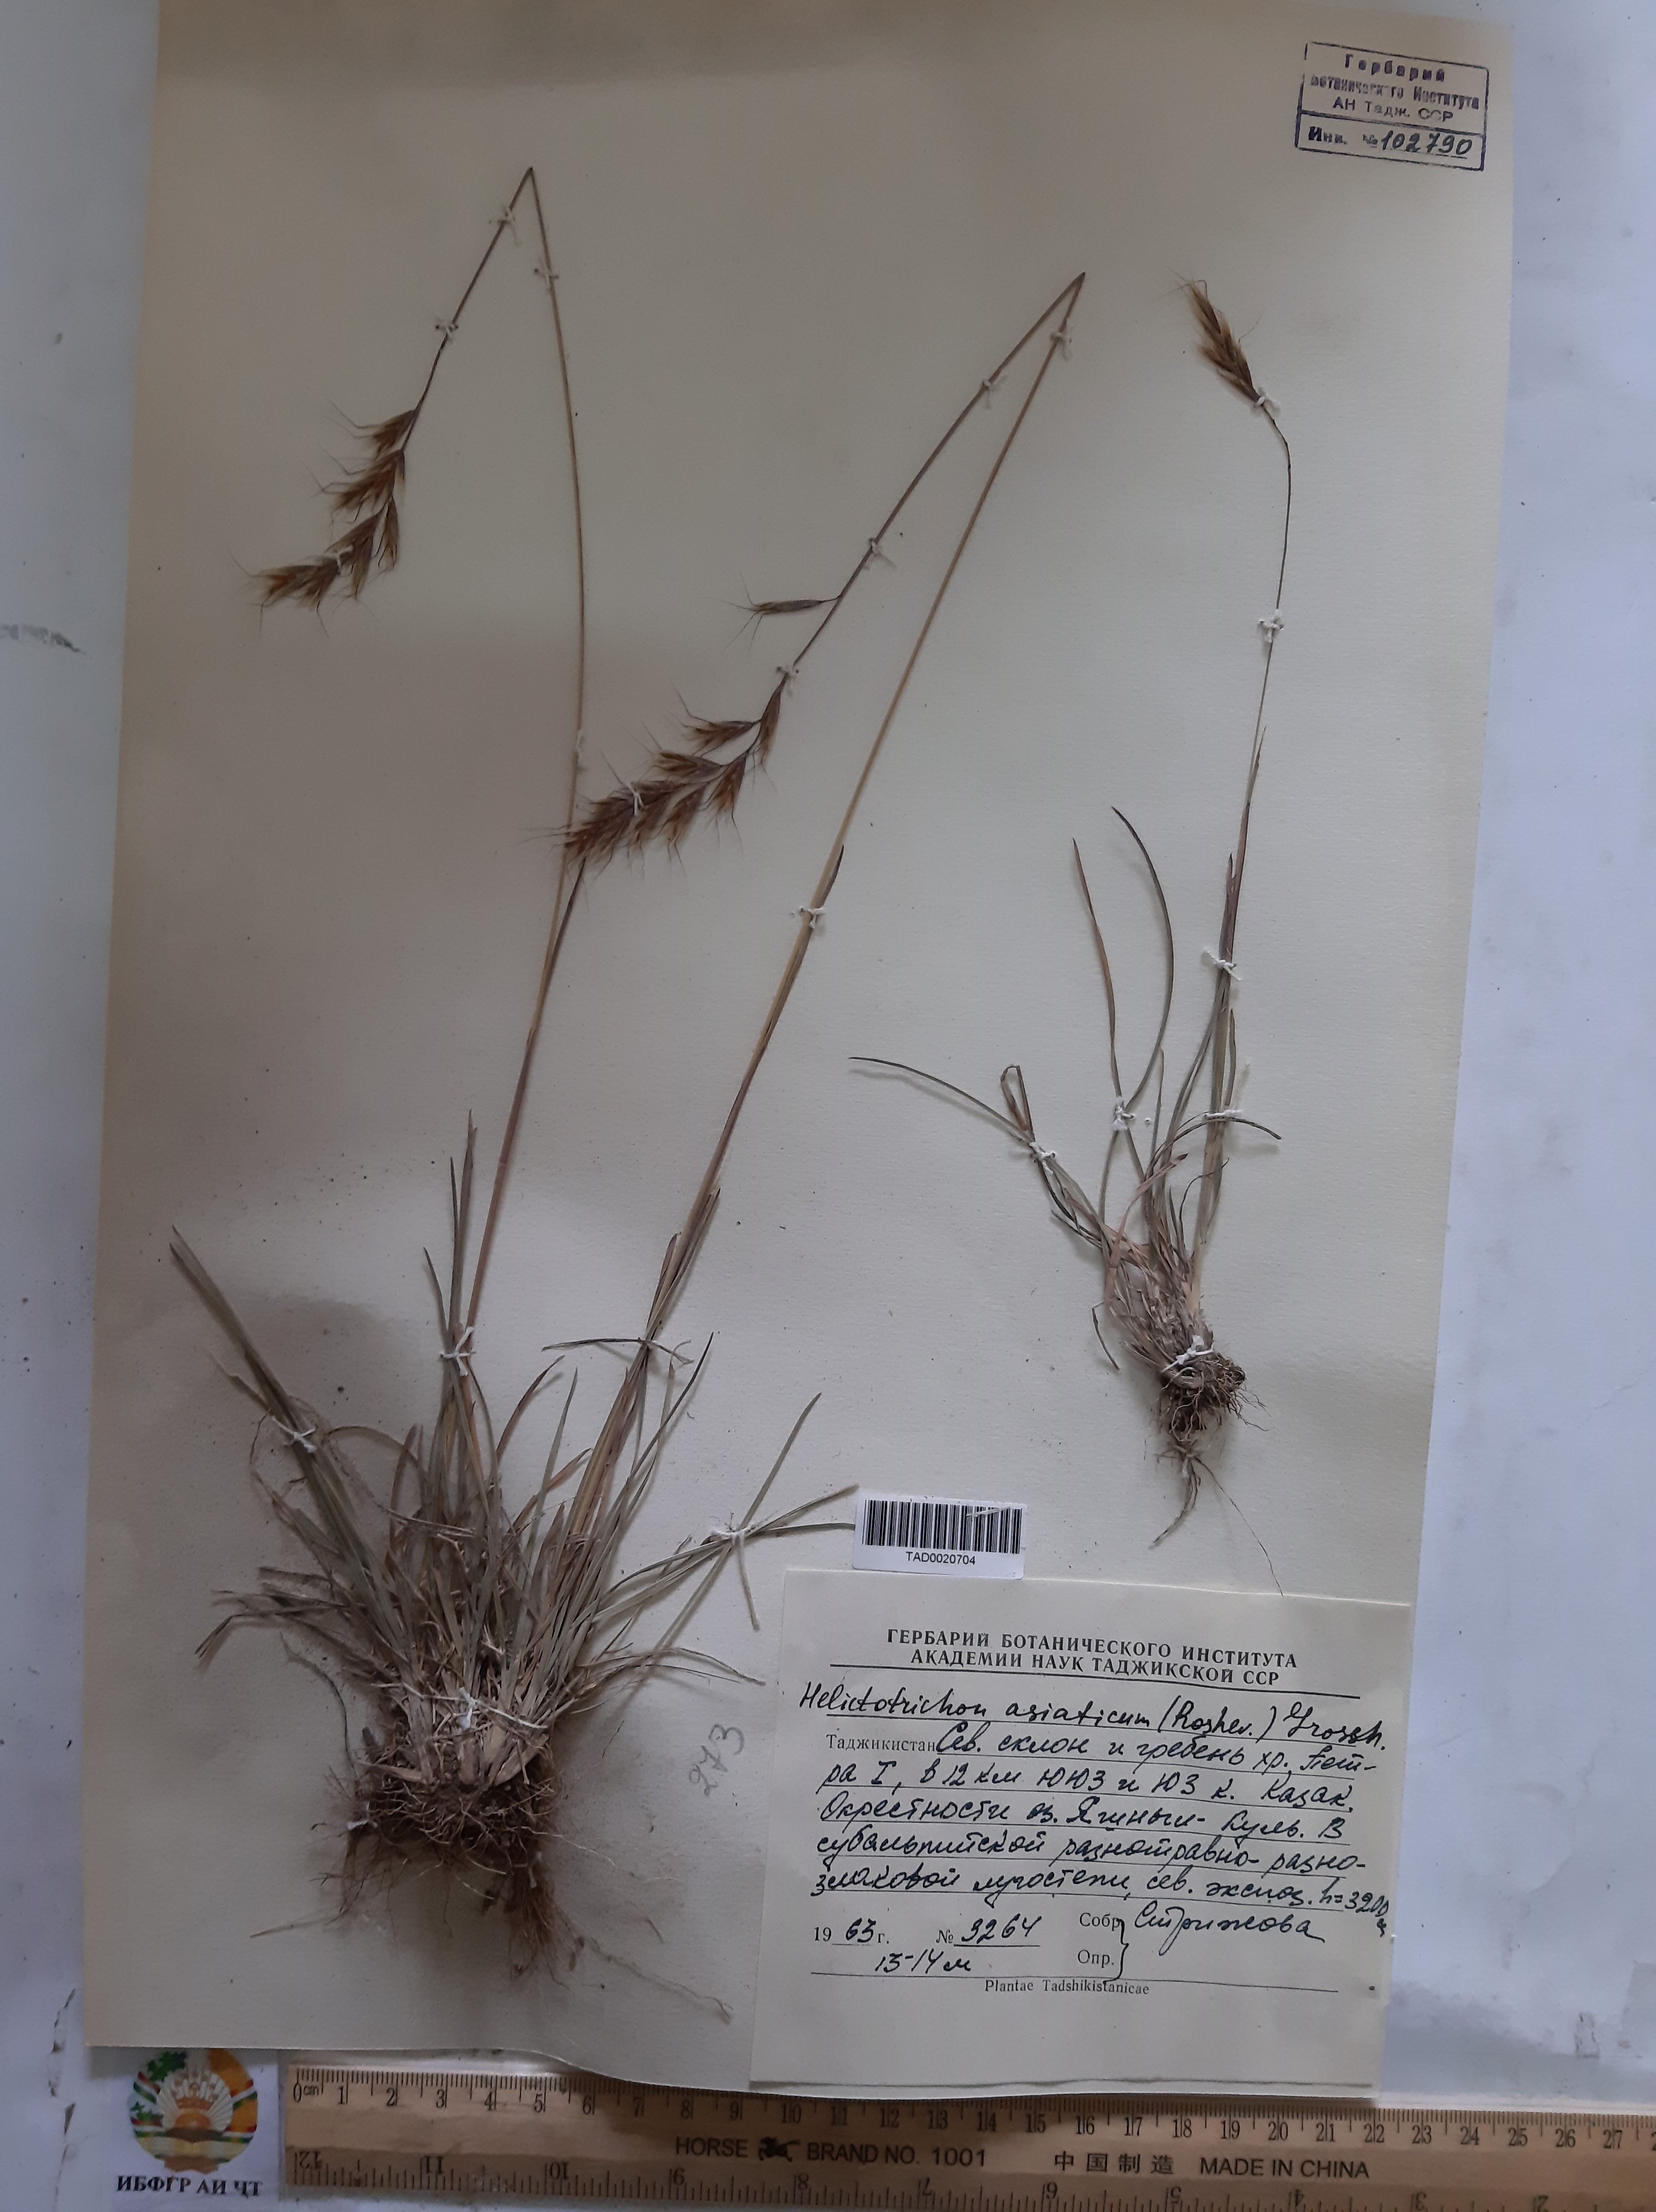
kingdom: Plantae
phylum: Tracheophyta
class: Liliopsida
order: Poales
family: Poaceae
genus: Helictochloa
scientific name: Helictochloa hookeri
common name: Hooker's alpine oatgrass
